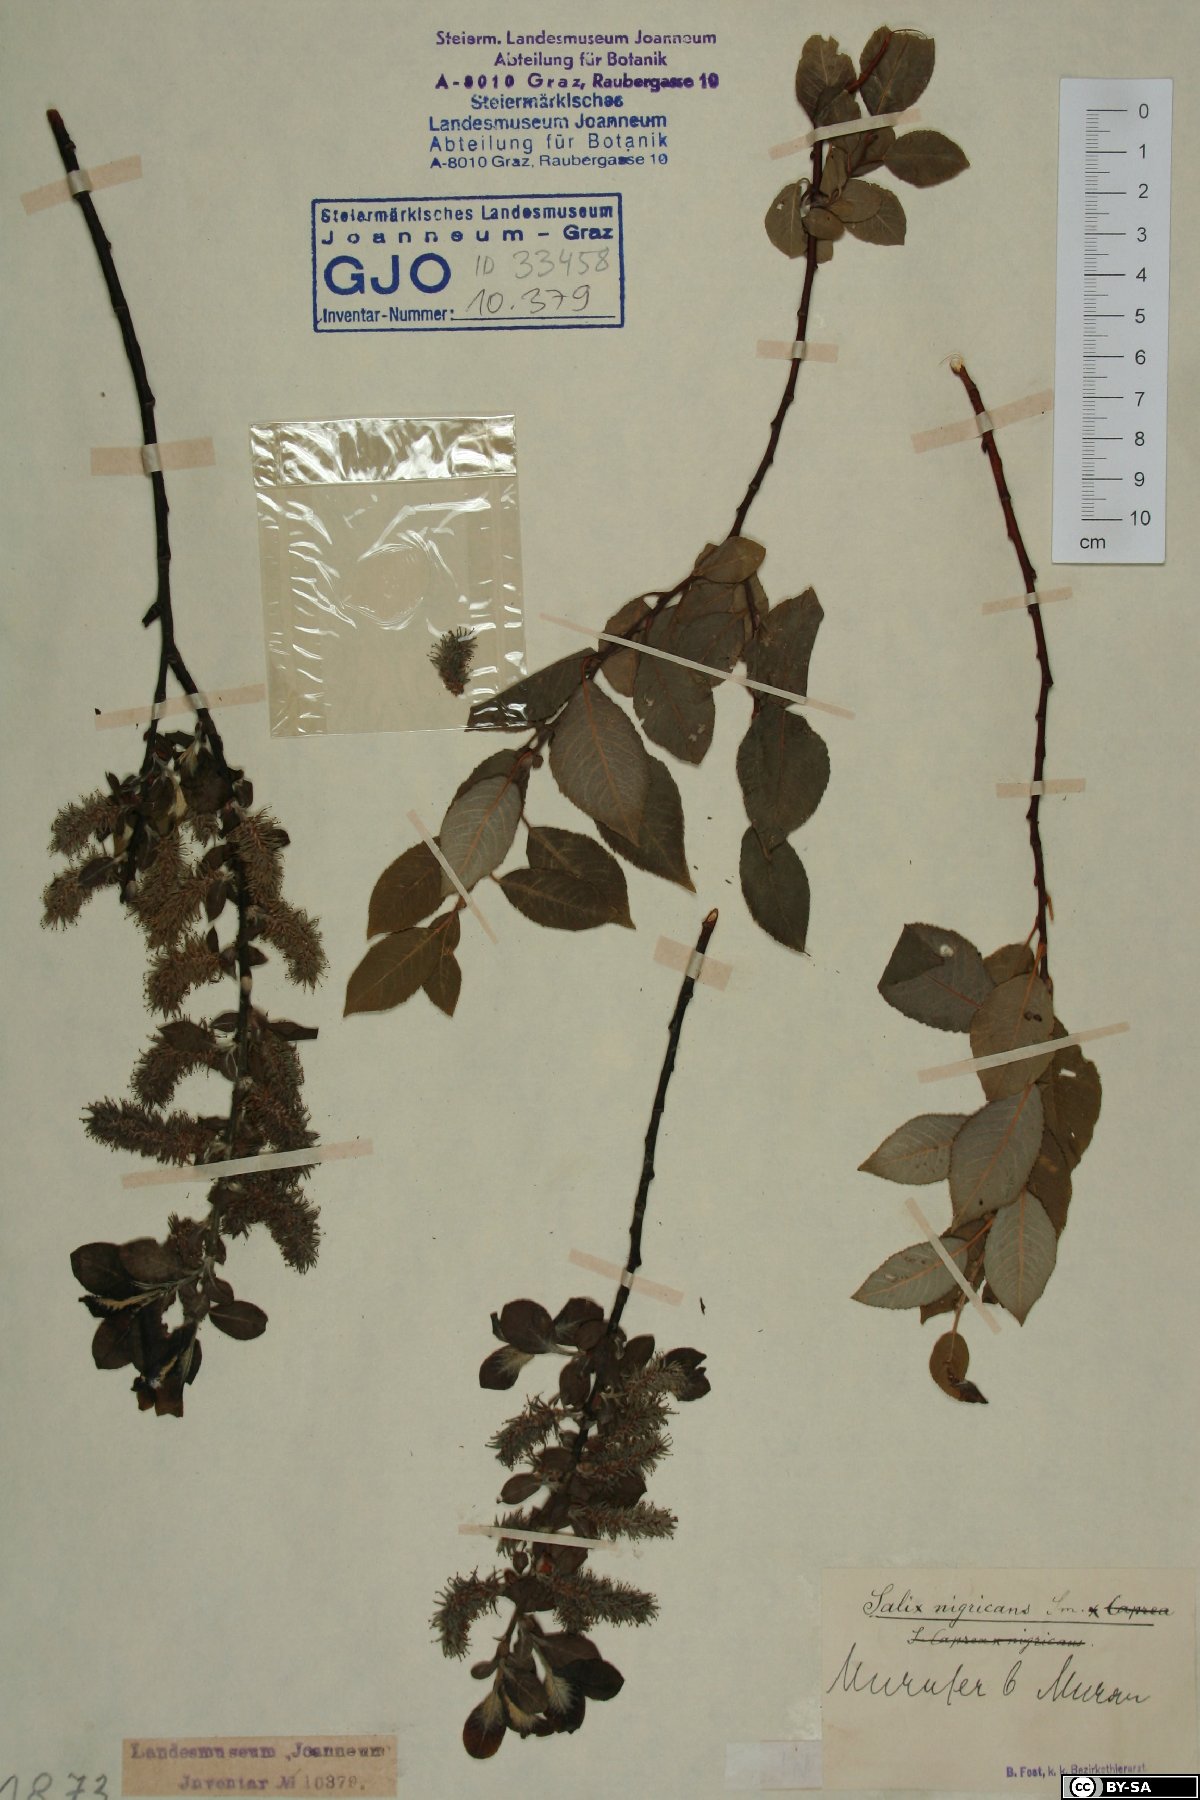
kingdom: Plantae
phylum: Tracheophyta
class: Magnoliopsida
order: Malpighiales
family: Salicaceae
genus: Salix
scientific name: Salix myrsinifolia
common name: Dark-leaved willow
